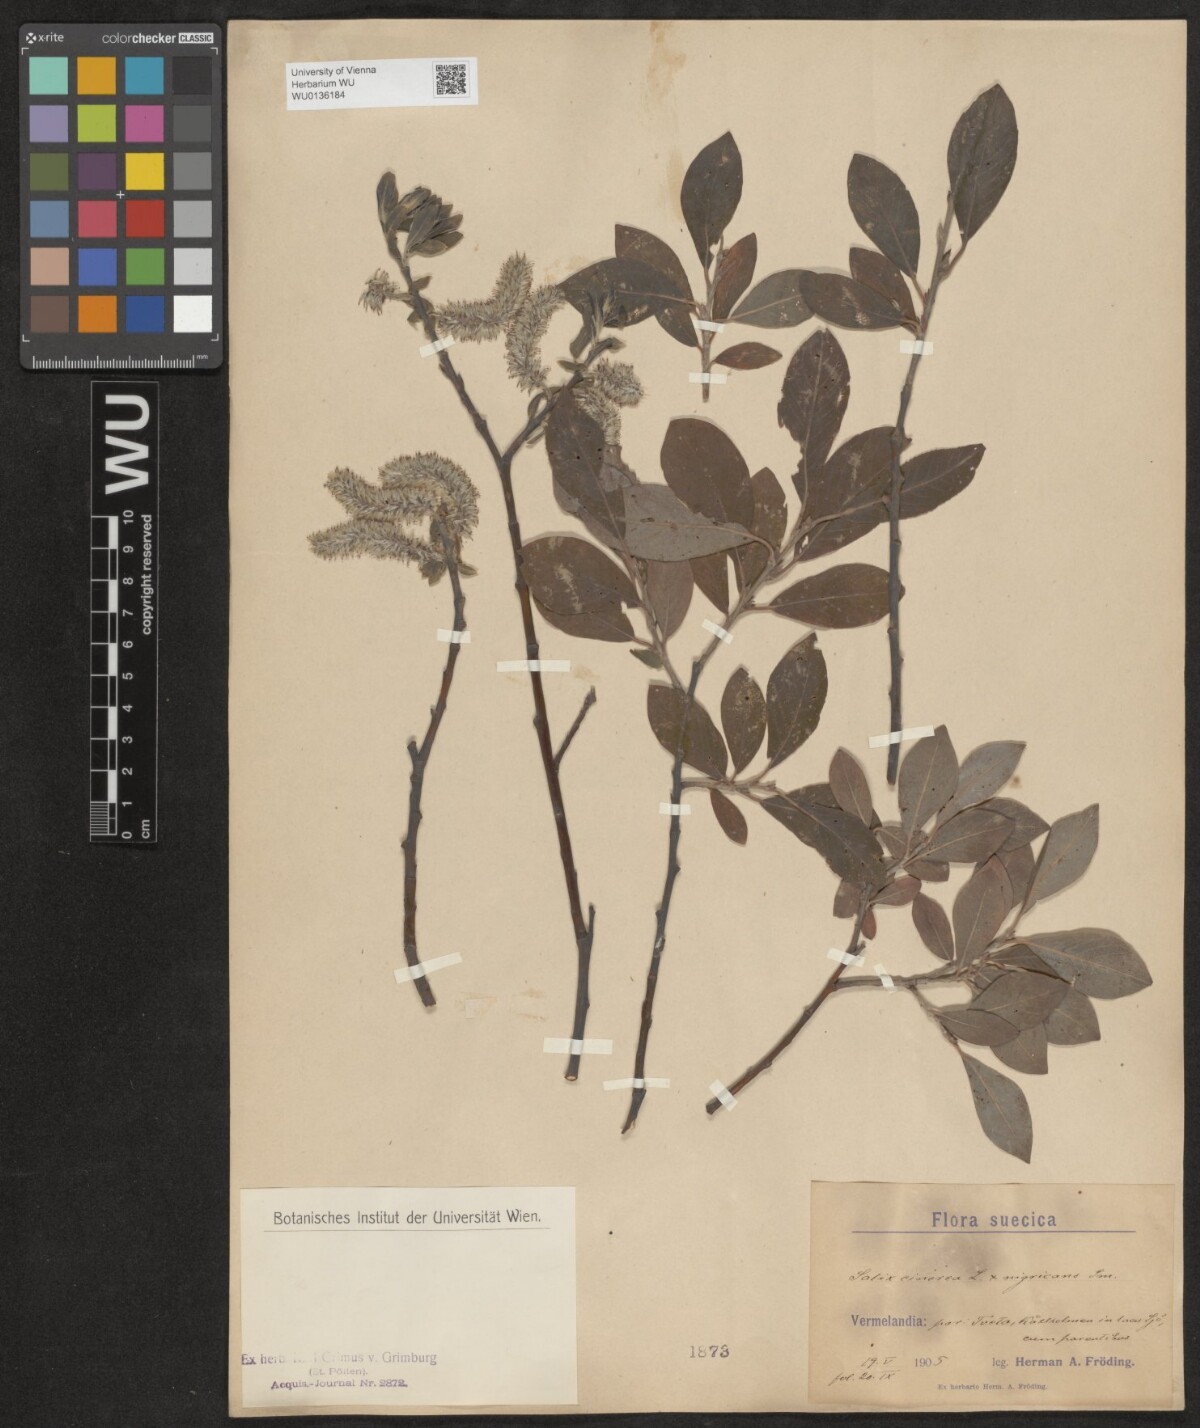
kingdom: Plantae
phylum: Tracheophyta
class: Magnoliopsida
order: Malpighiales
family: Salicaceae
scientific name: Salicaceae
